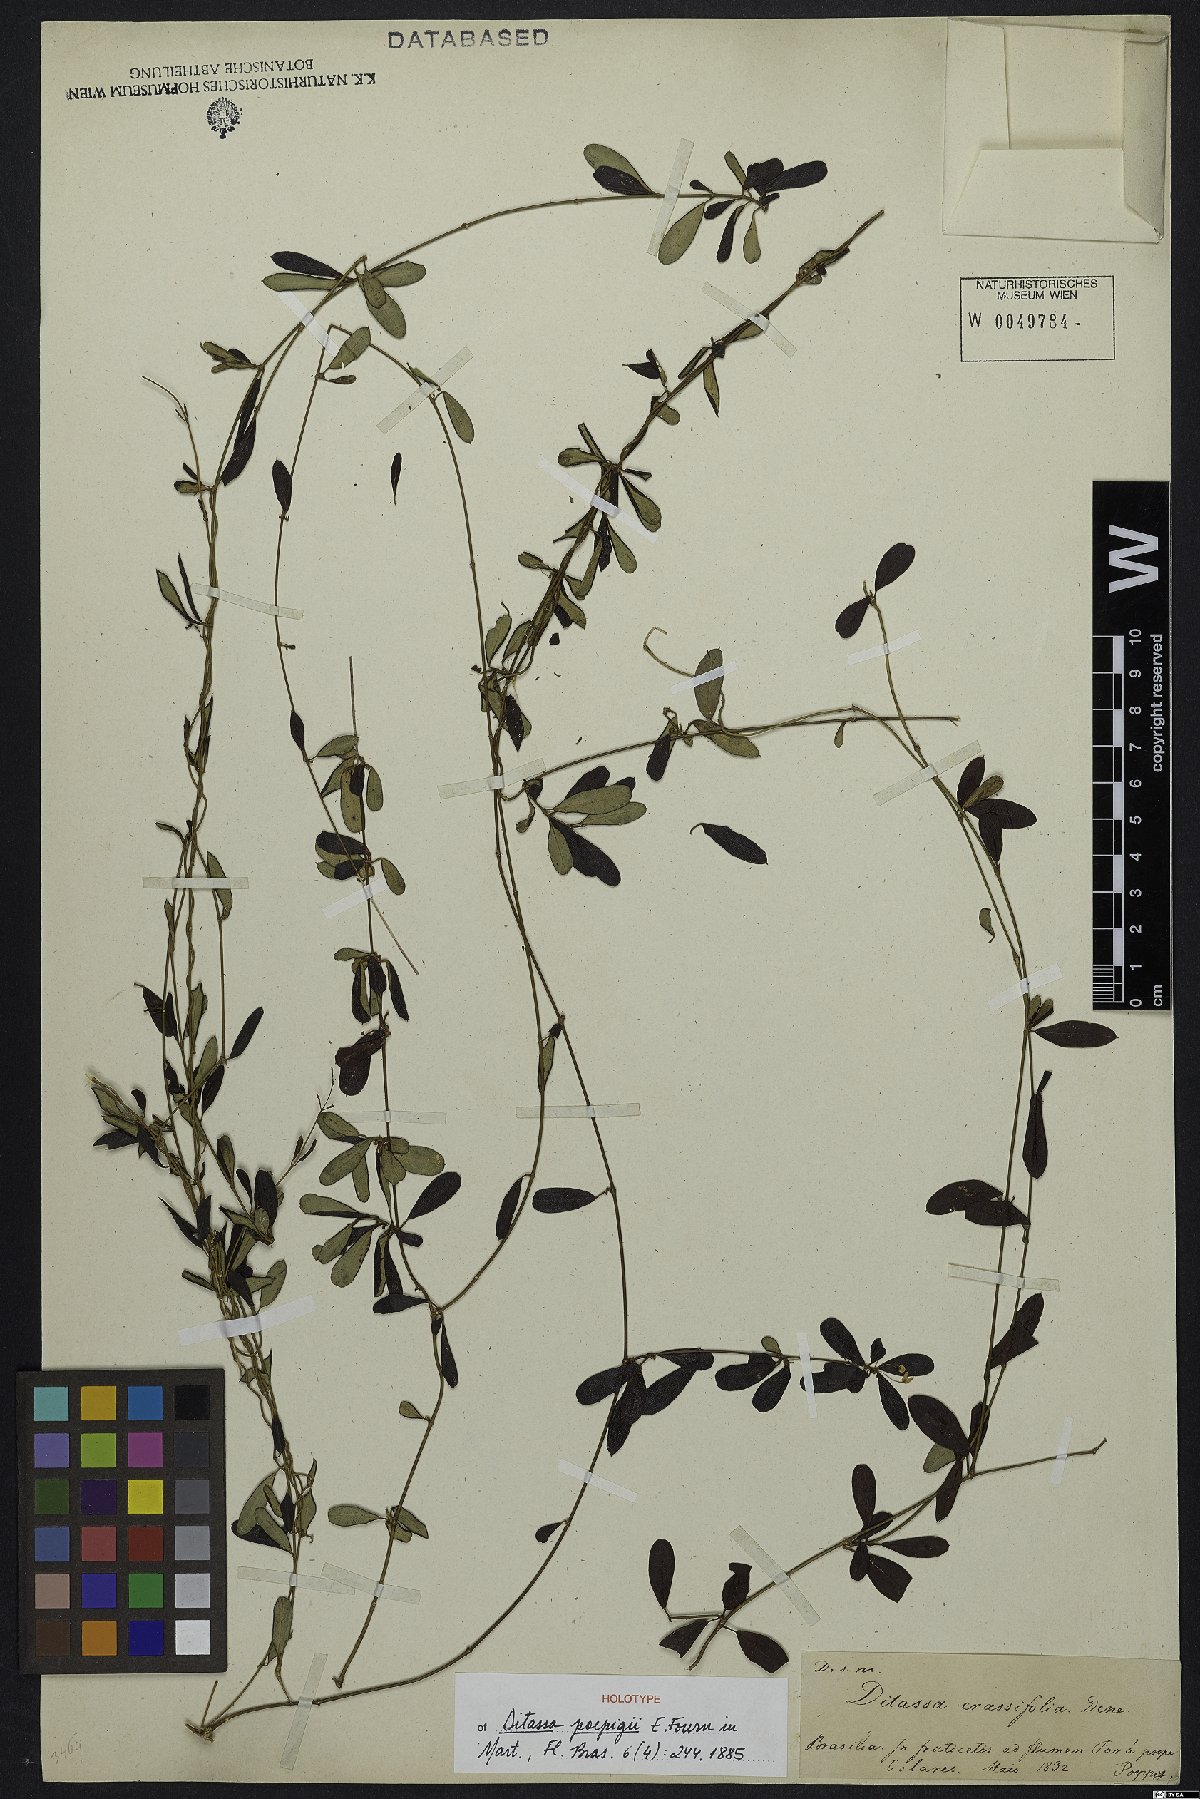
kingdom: Plantae
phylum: Tracheophyta
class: Magnoliopsida
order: Gentianales
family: Apocynaceae
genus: Ditassa
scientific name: Ditassa poeppigii
